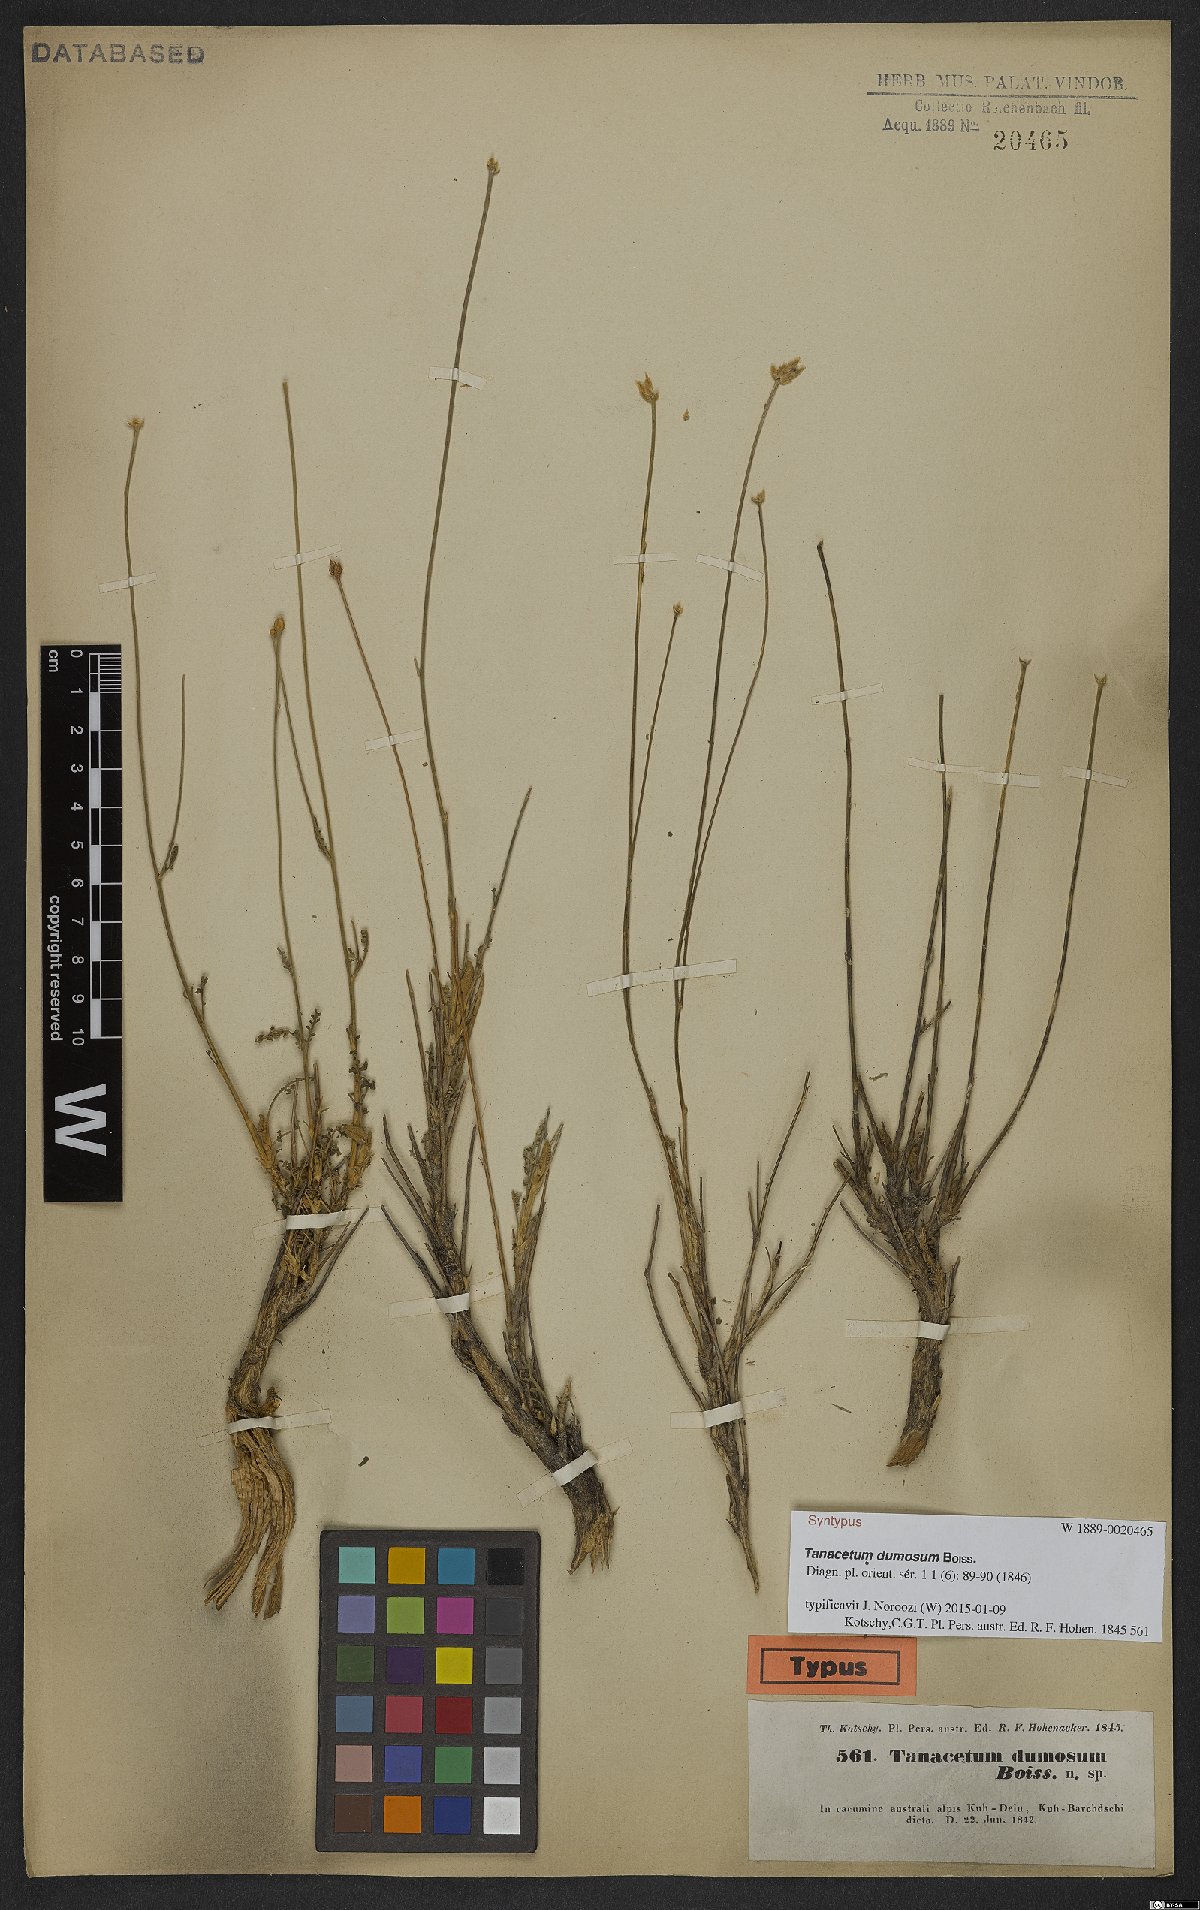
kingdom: Plantae
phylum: Tracheophyta
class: Magnoliopsida
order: Asterales
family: Asteraceae
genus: Tanacetum
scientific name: Tanacetum dumosum
